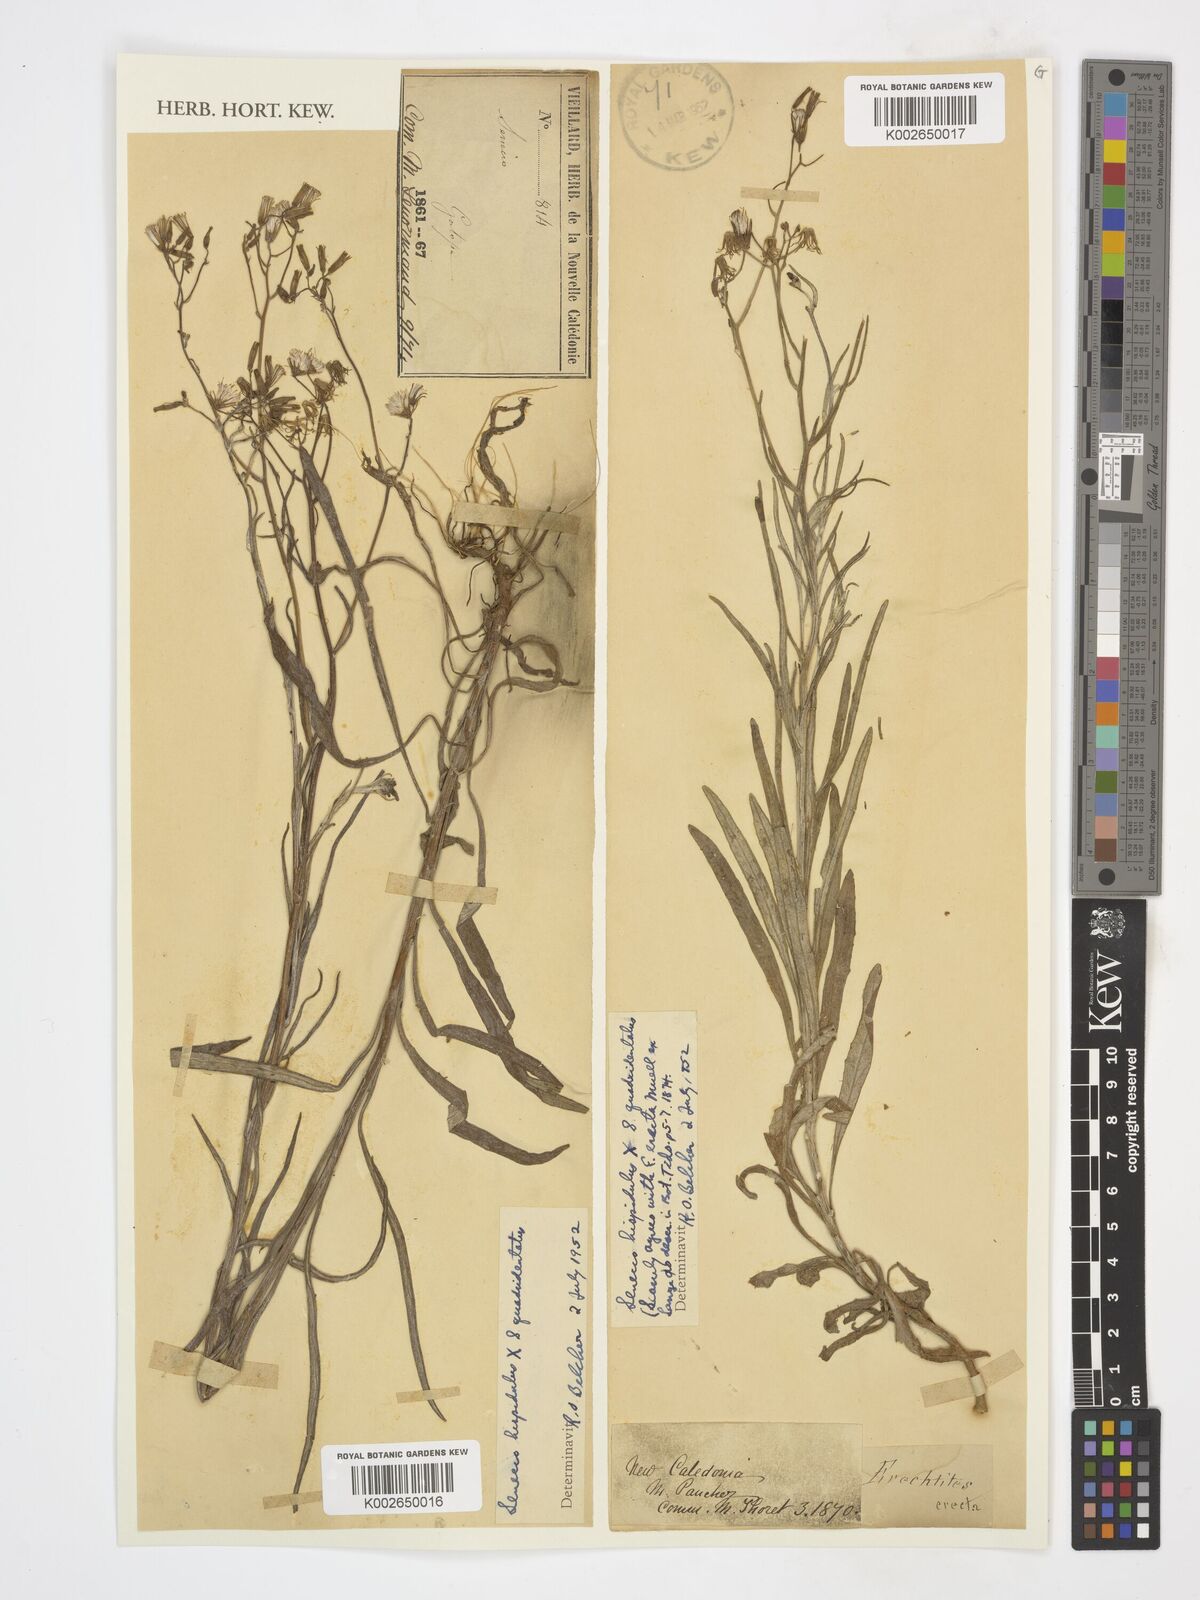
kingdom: Plantae
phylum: Tracheophyta
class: Magnoliopsida
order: Asterales
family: Asteraceae
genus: Senecio
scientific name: Senecio hispidulus
